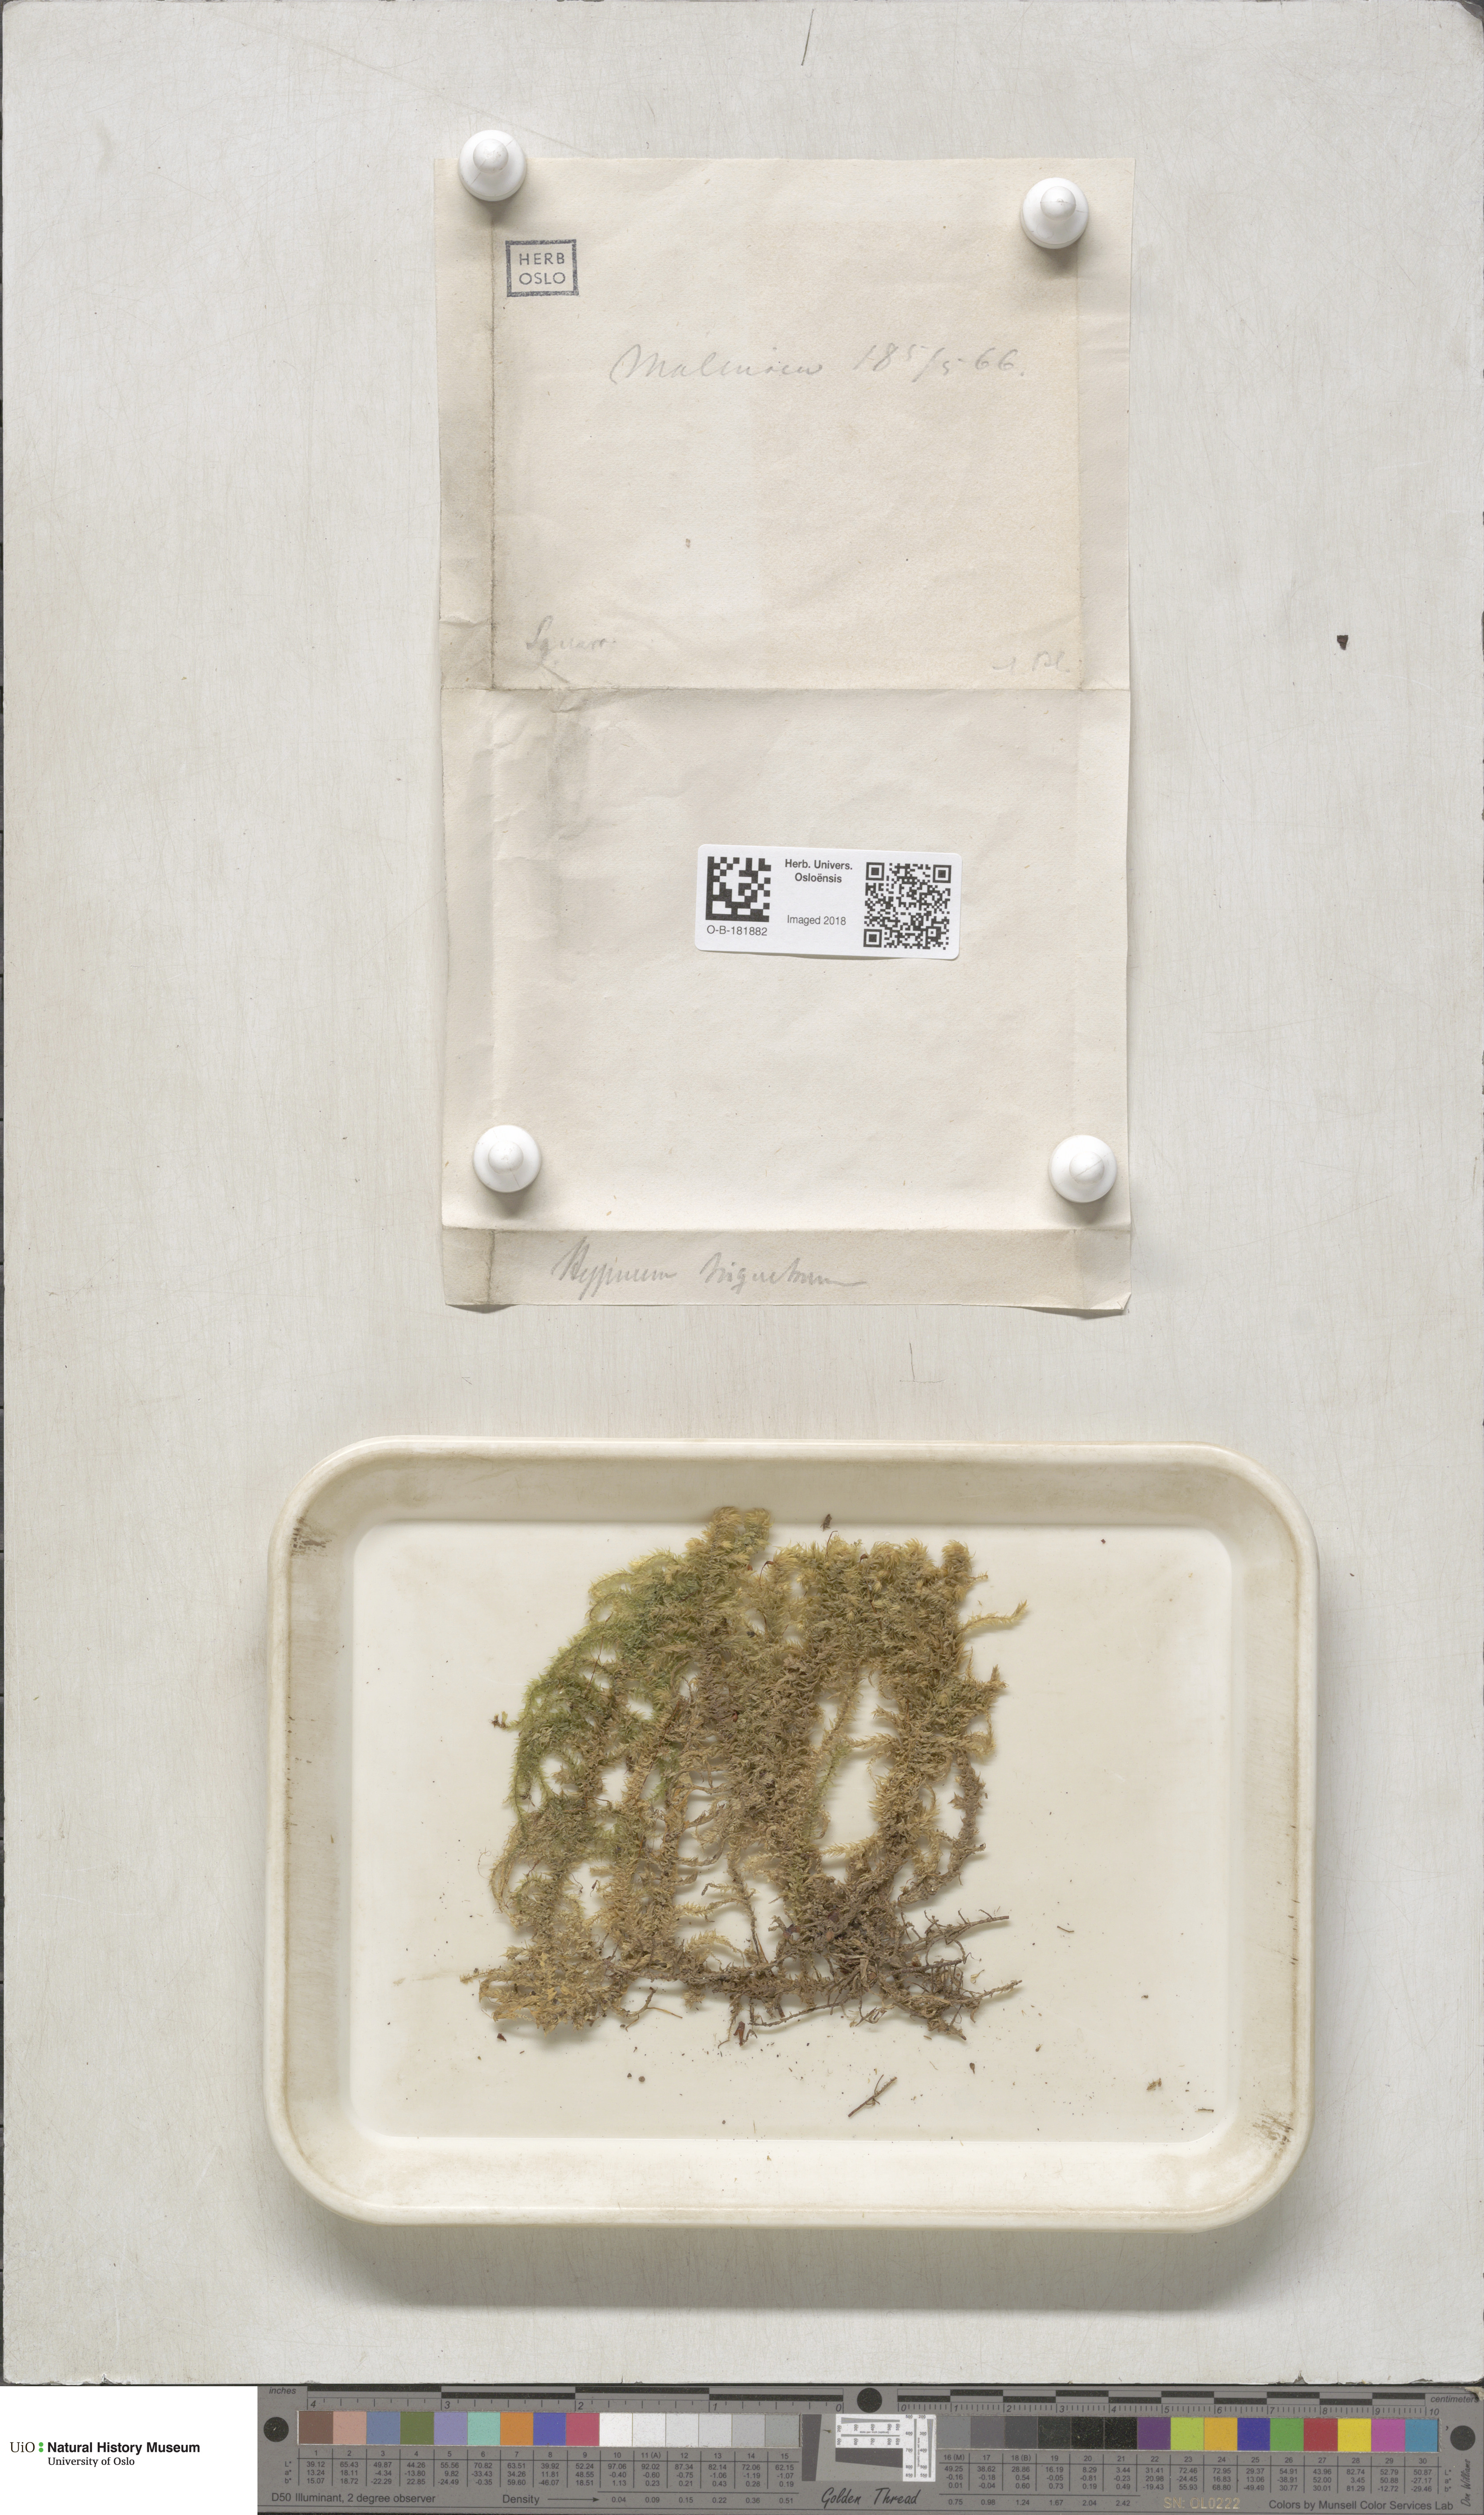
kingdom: Plantae
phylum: Bryophyta
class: Bryopsida
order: Hypnales
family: Hylocomiaceae
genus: Hylocomiadelphus
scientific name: Hylocomiadelphus triquetrus
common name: Rough goose neck moss
